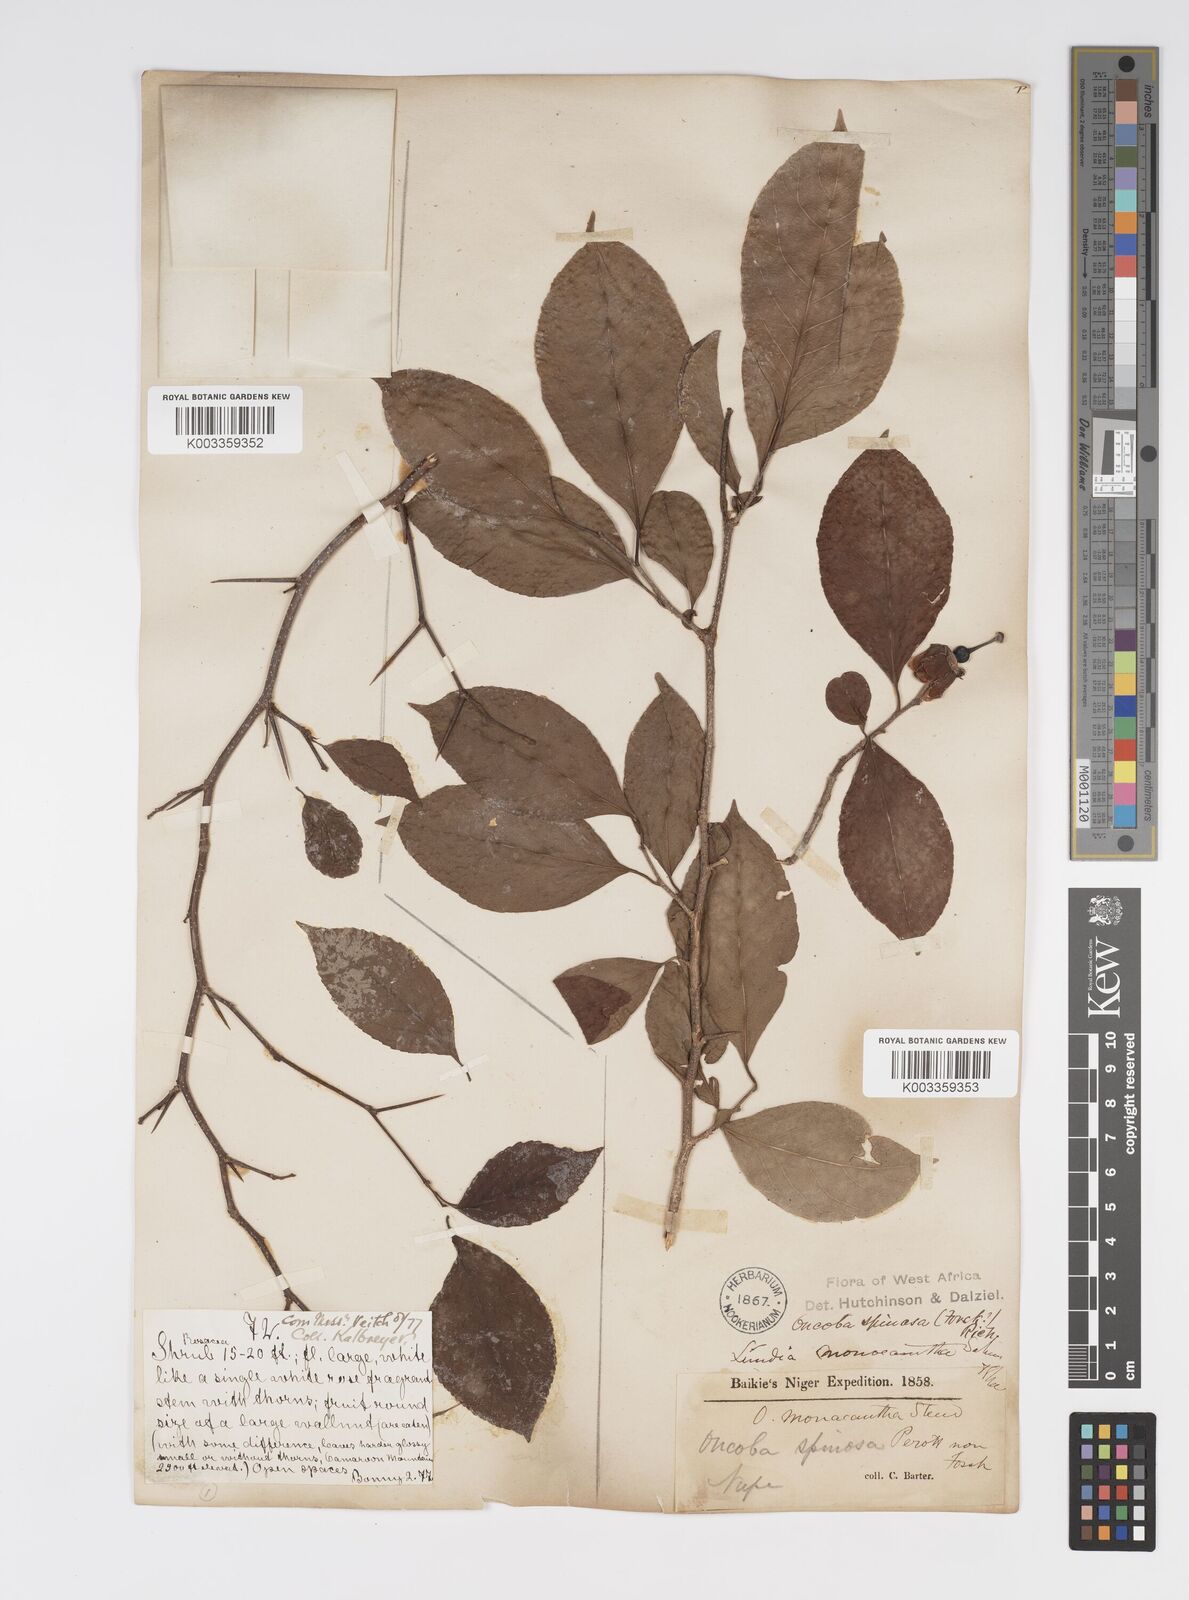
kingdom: Plantae
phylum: Tracheophyta
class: Magnoliopsida
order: Malpighiales
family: Salicaceae
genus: Oncoba
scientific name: Oncoba spinosa
